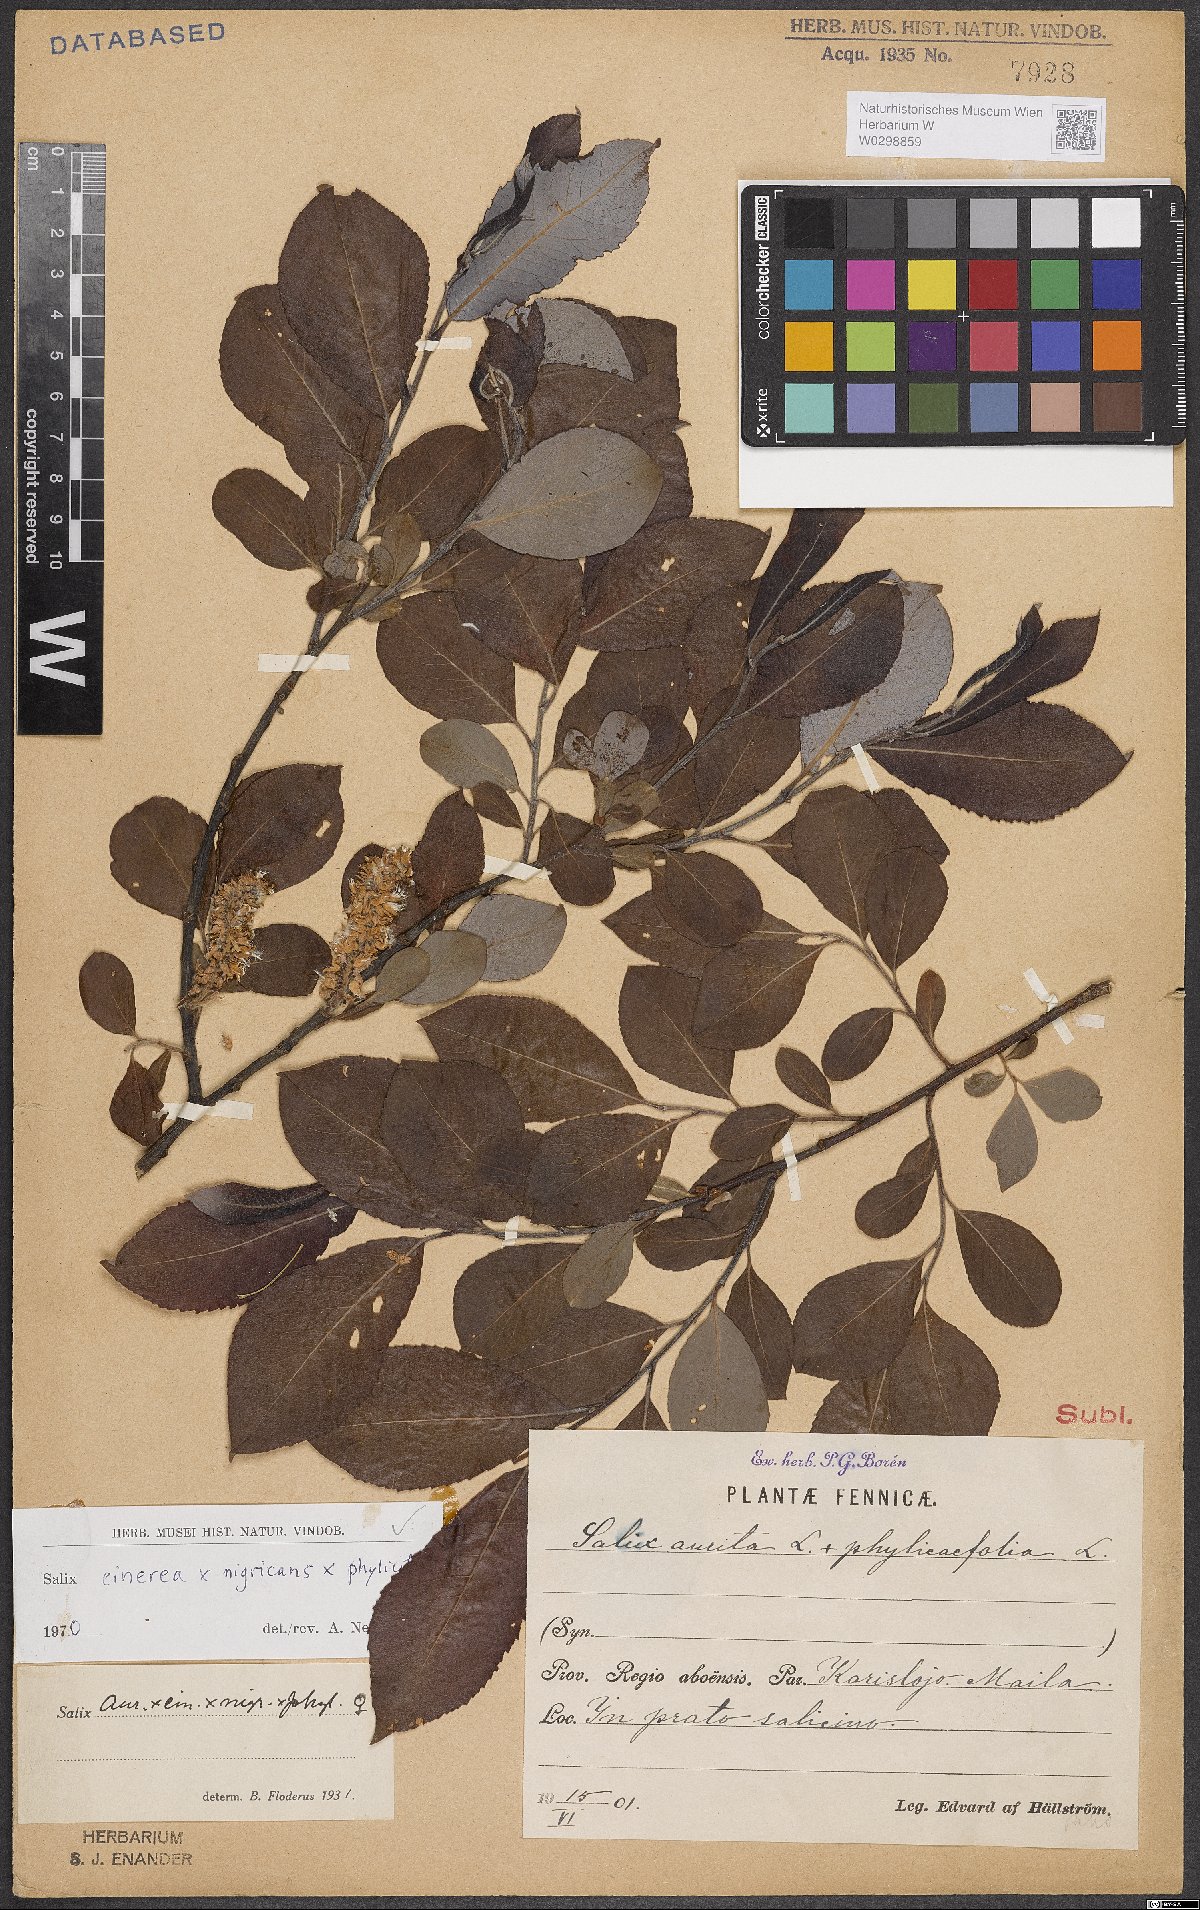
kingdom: Plantae
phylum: Tracheophyta
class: Magnoliopsida
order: Malpighiales
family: Salicaceae
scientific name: Salicaceae
